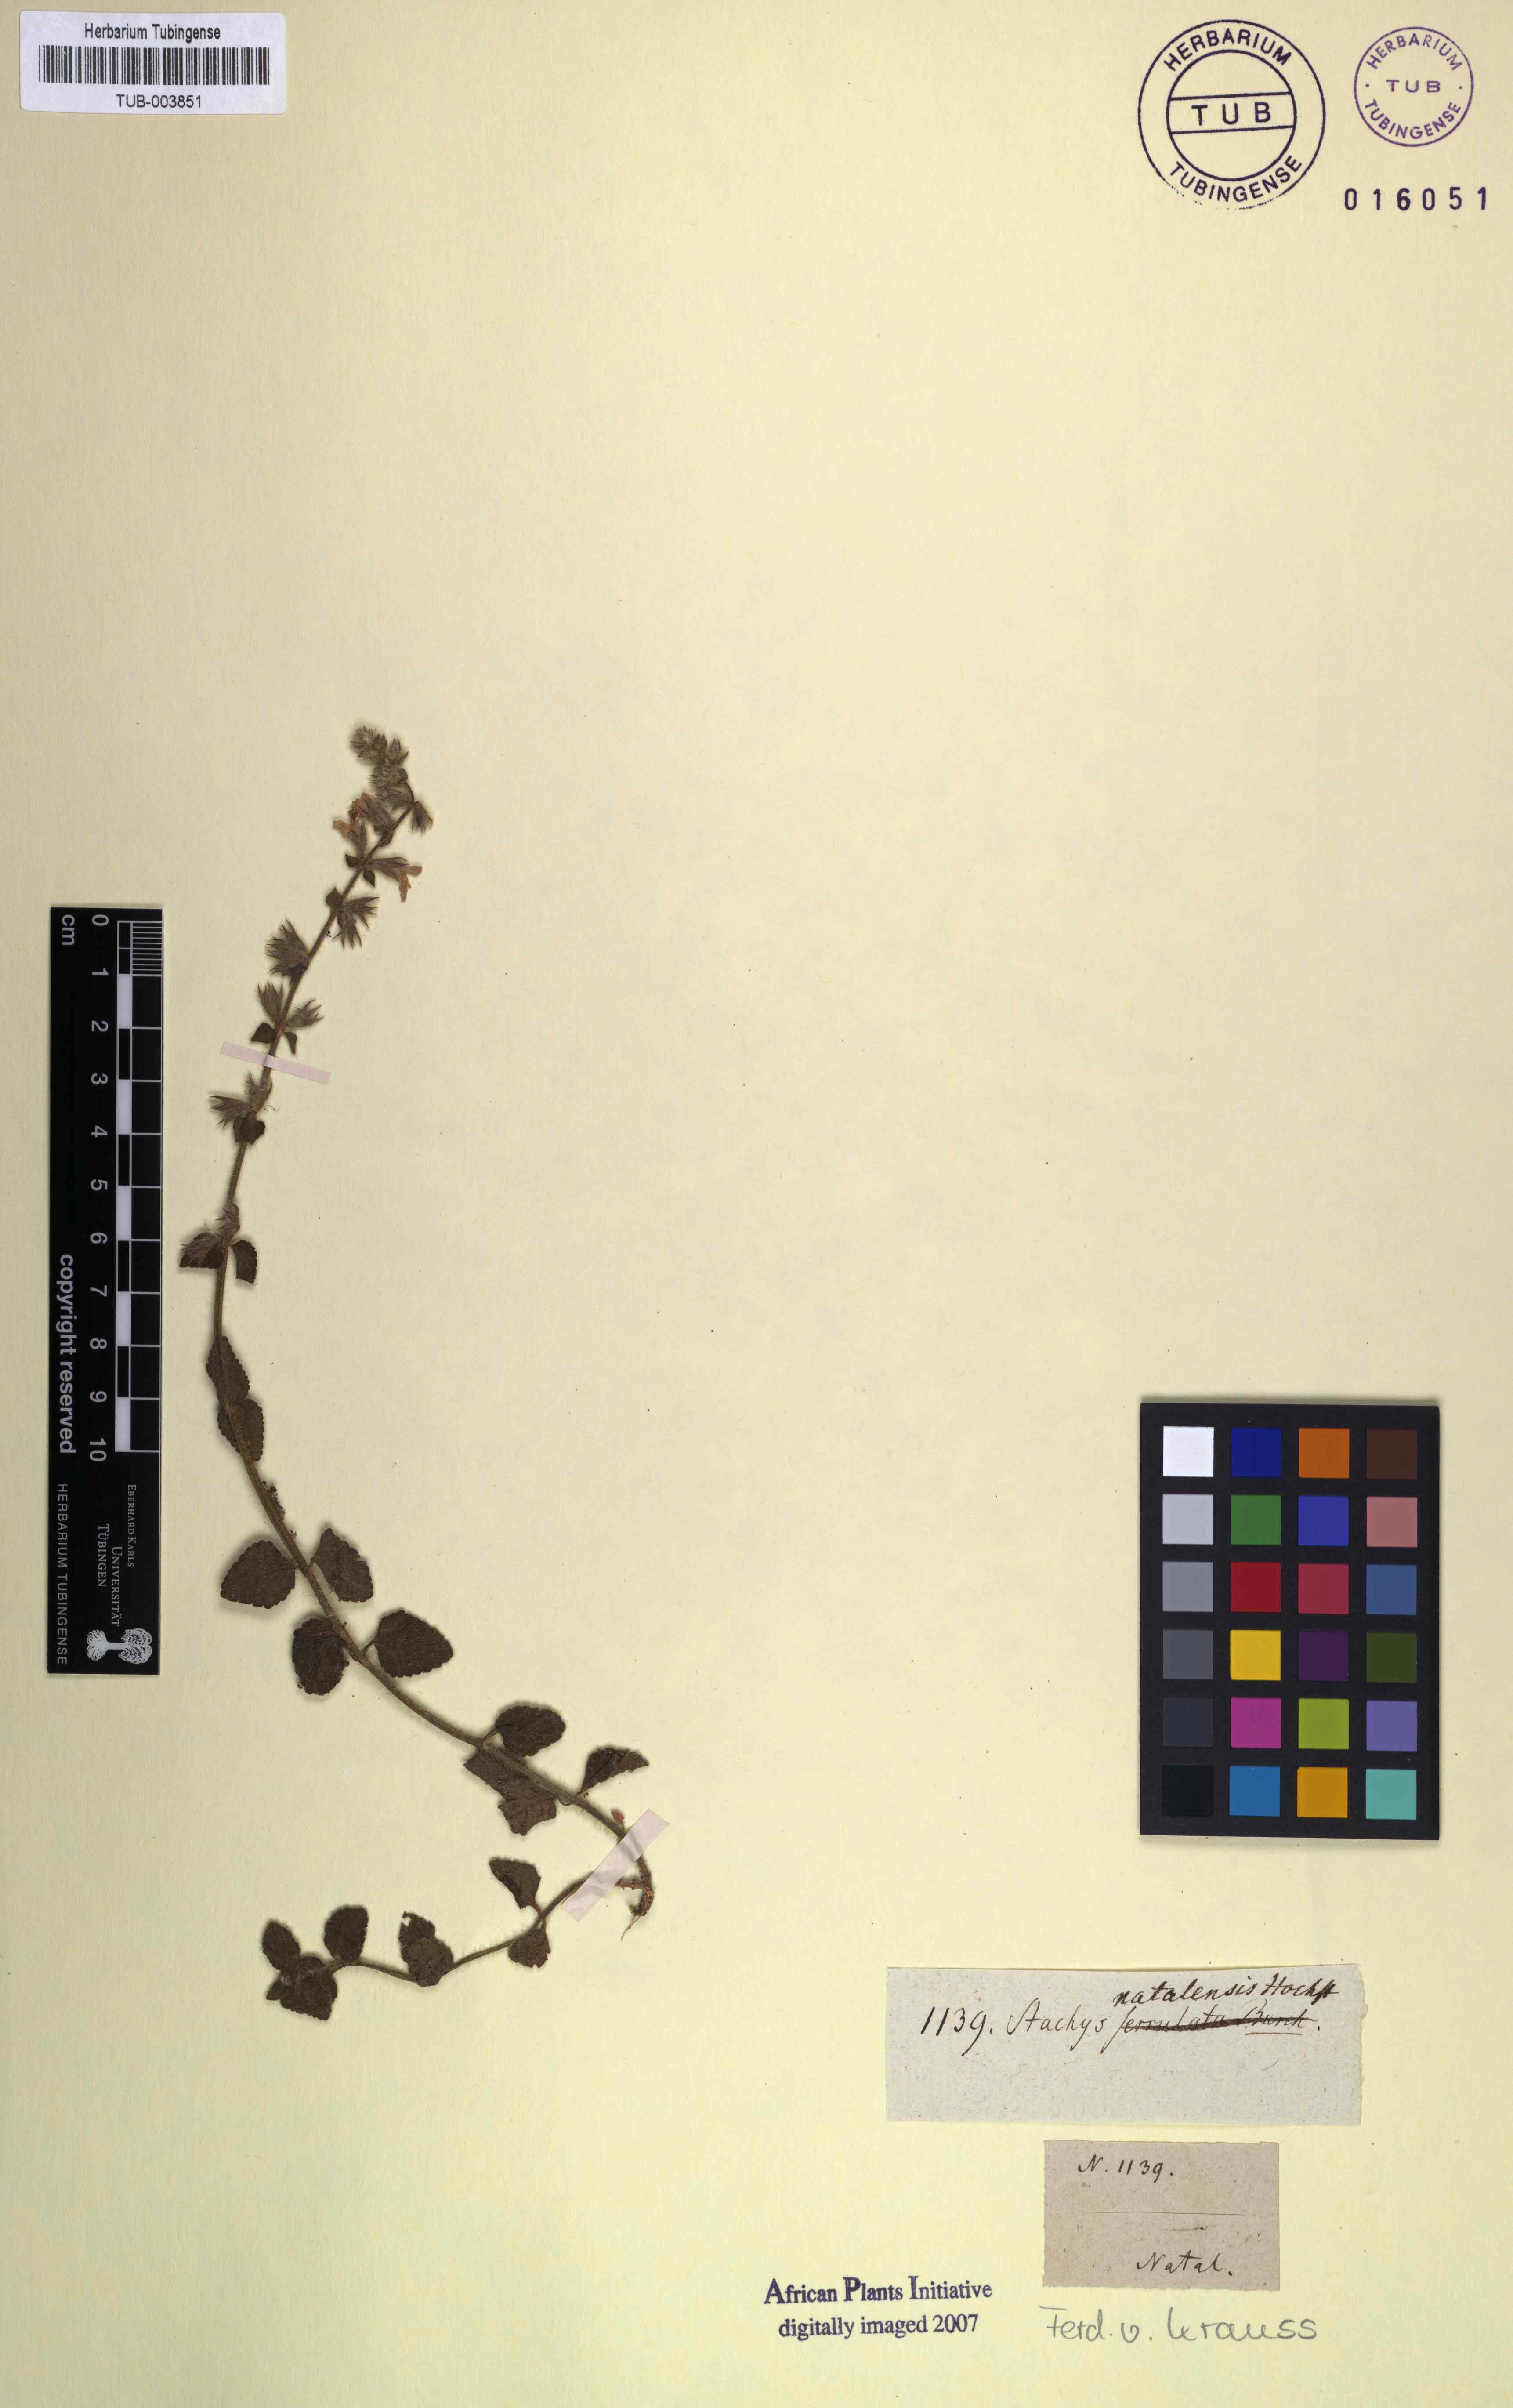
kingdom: Plantae
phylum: Tracheophyta
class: Magnoliopsida
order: Lamiales
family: Lamiaceae
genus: Stachys
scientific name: Stachys natalensis
